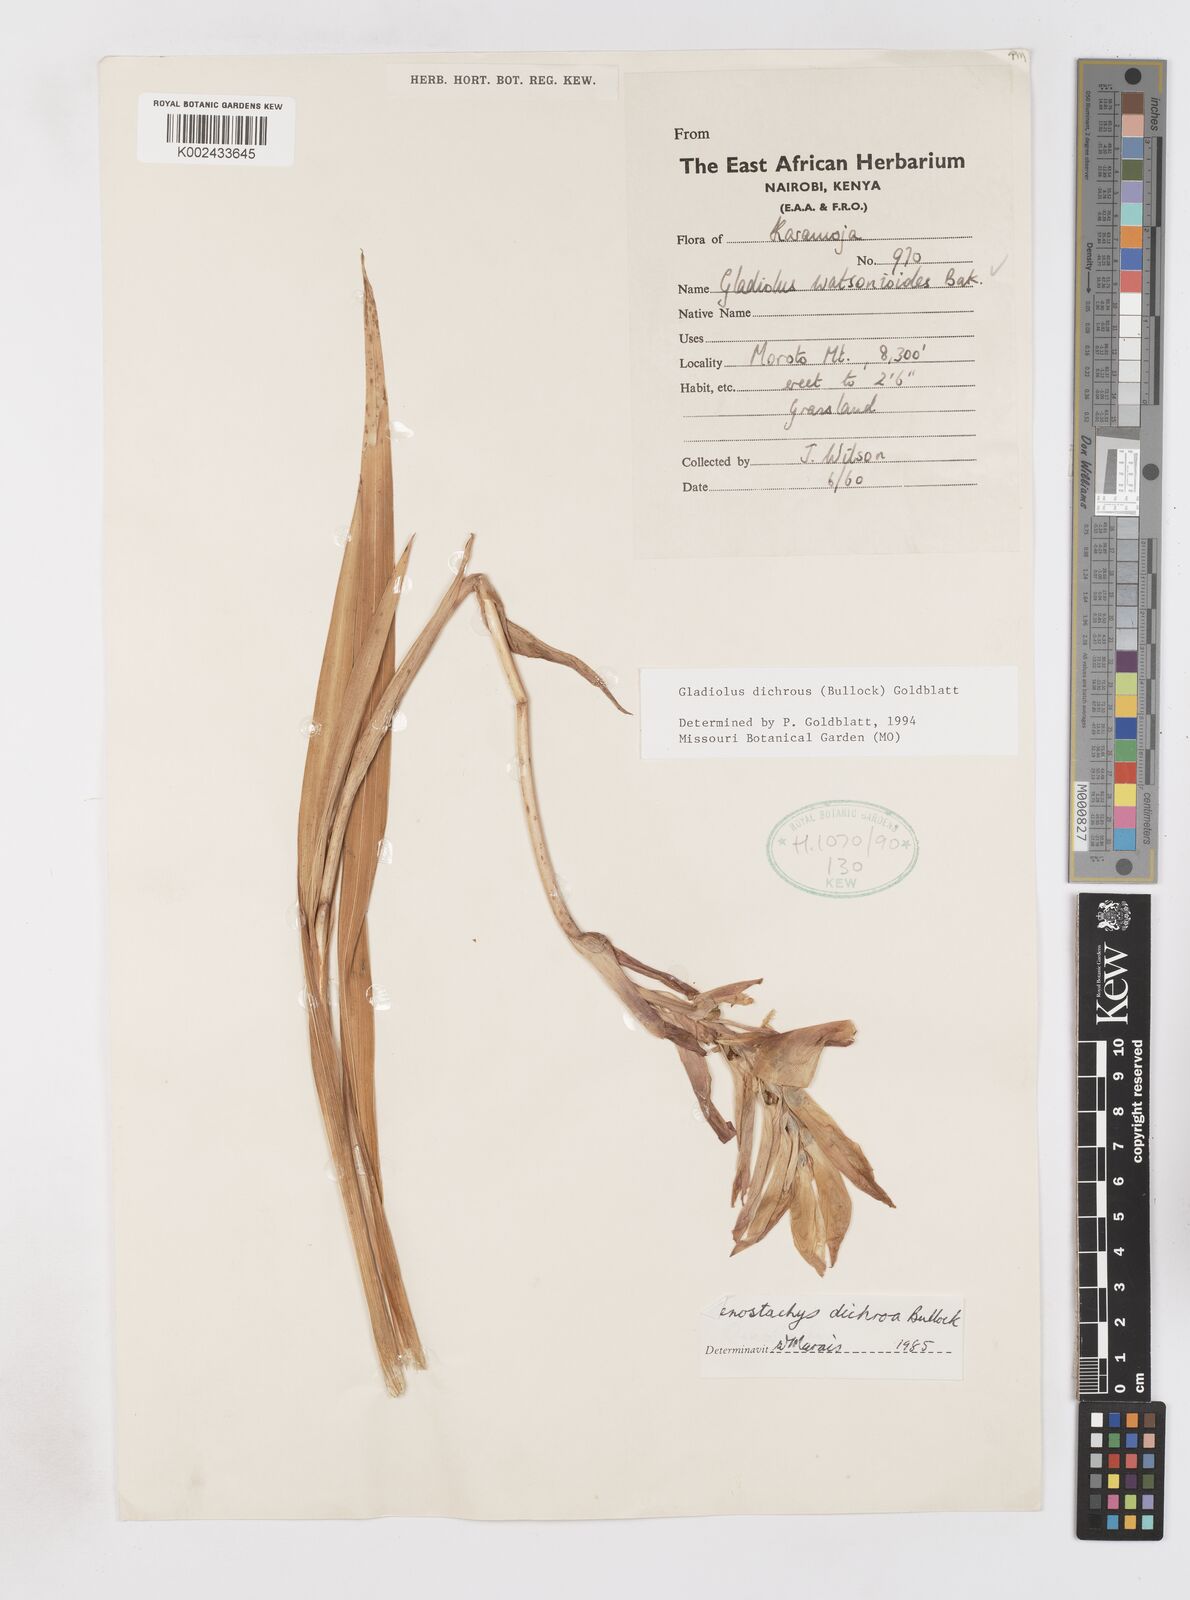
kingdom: Plantae
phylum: Tracheophyta
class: Liliopsida
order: Asparagales
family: Iridaceae
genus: Gladiolus
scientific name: Gladiolus dichrous
